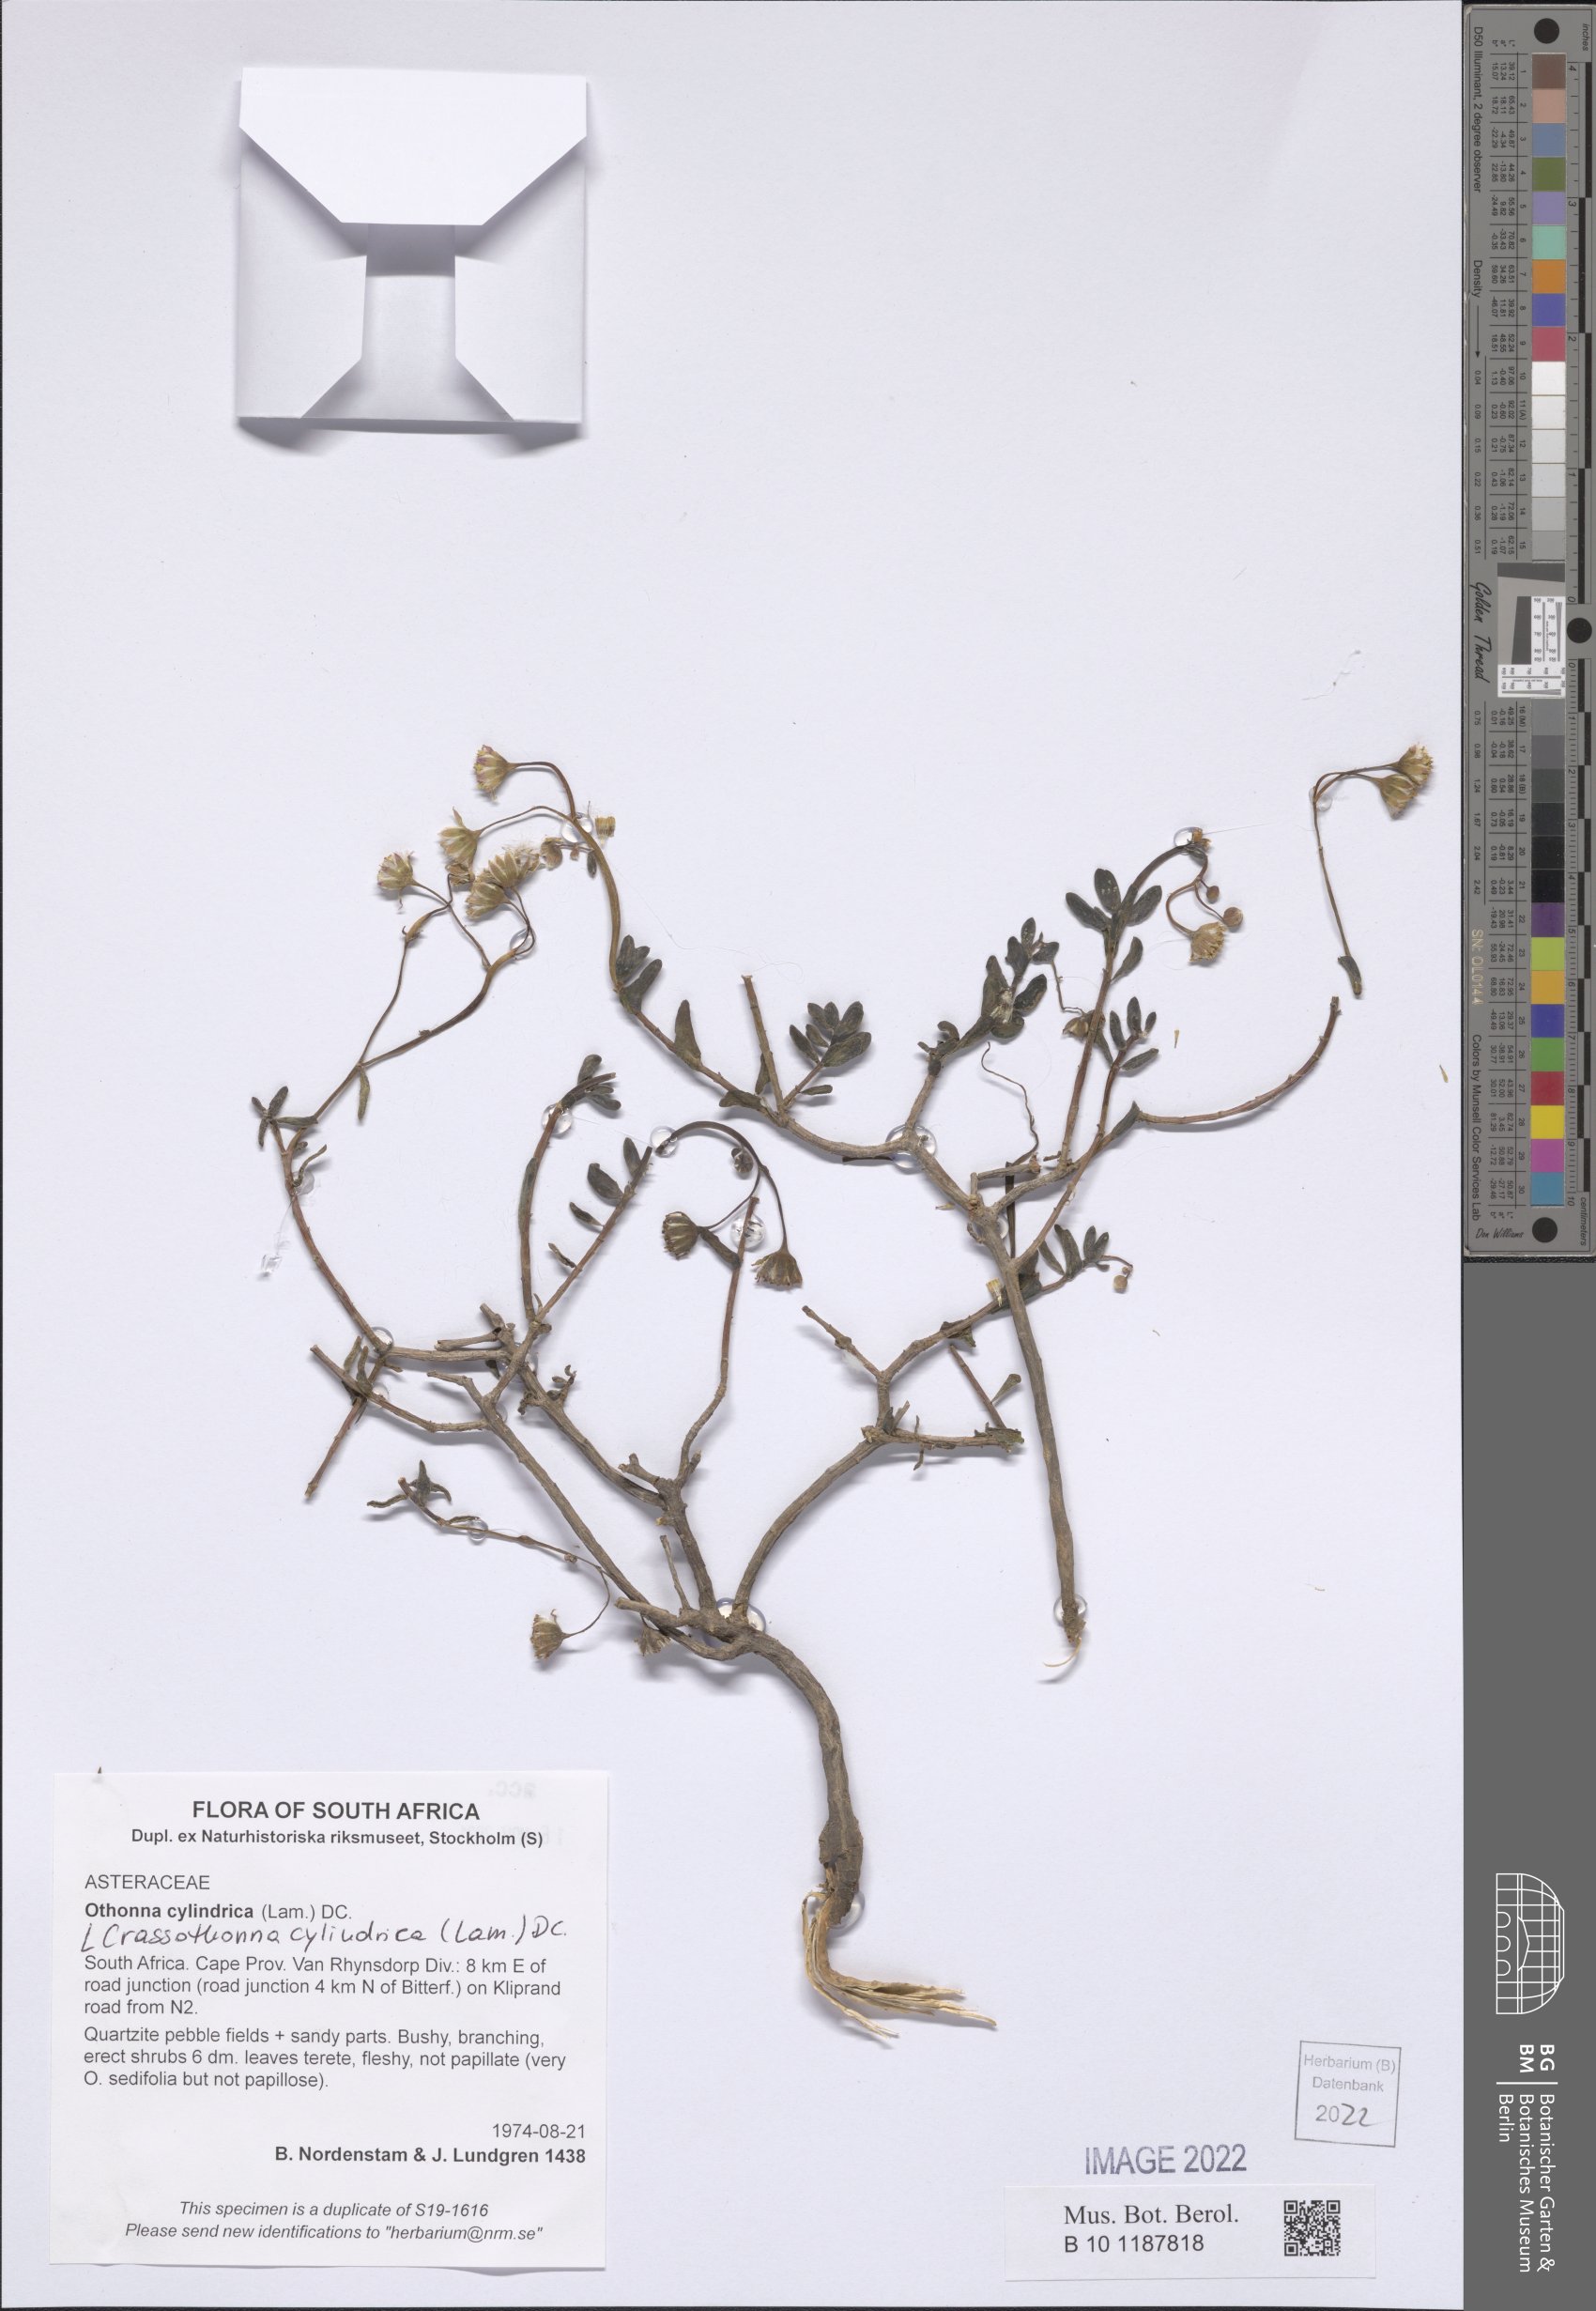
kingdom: Plantae
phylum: Tracheophyta
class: Magnoliopsida
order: Asterales
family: Asteraceae
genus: Crassothonna
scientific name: Crassothonna cylindrica
